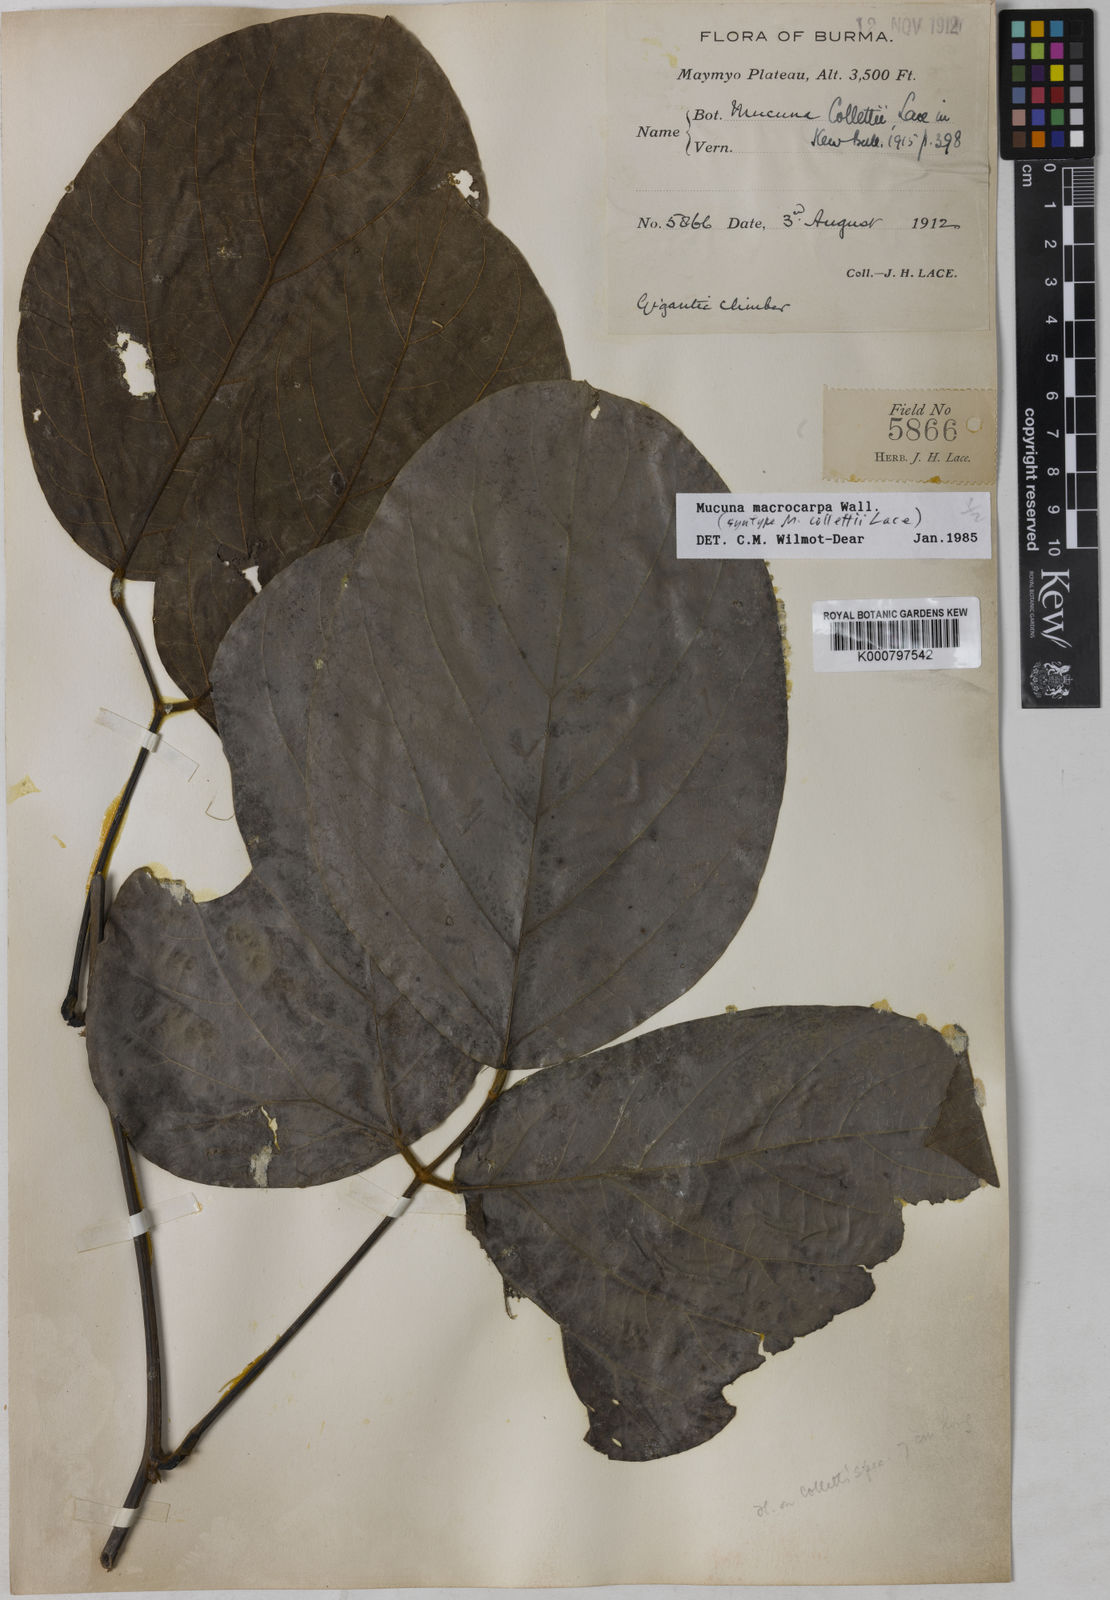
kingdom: Plantae
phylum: Tracheophyta
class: Magnoliopsida
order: Fabales
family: Fabaceae
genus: Mucuna
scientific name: Mucuna macrocarpa
